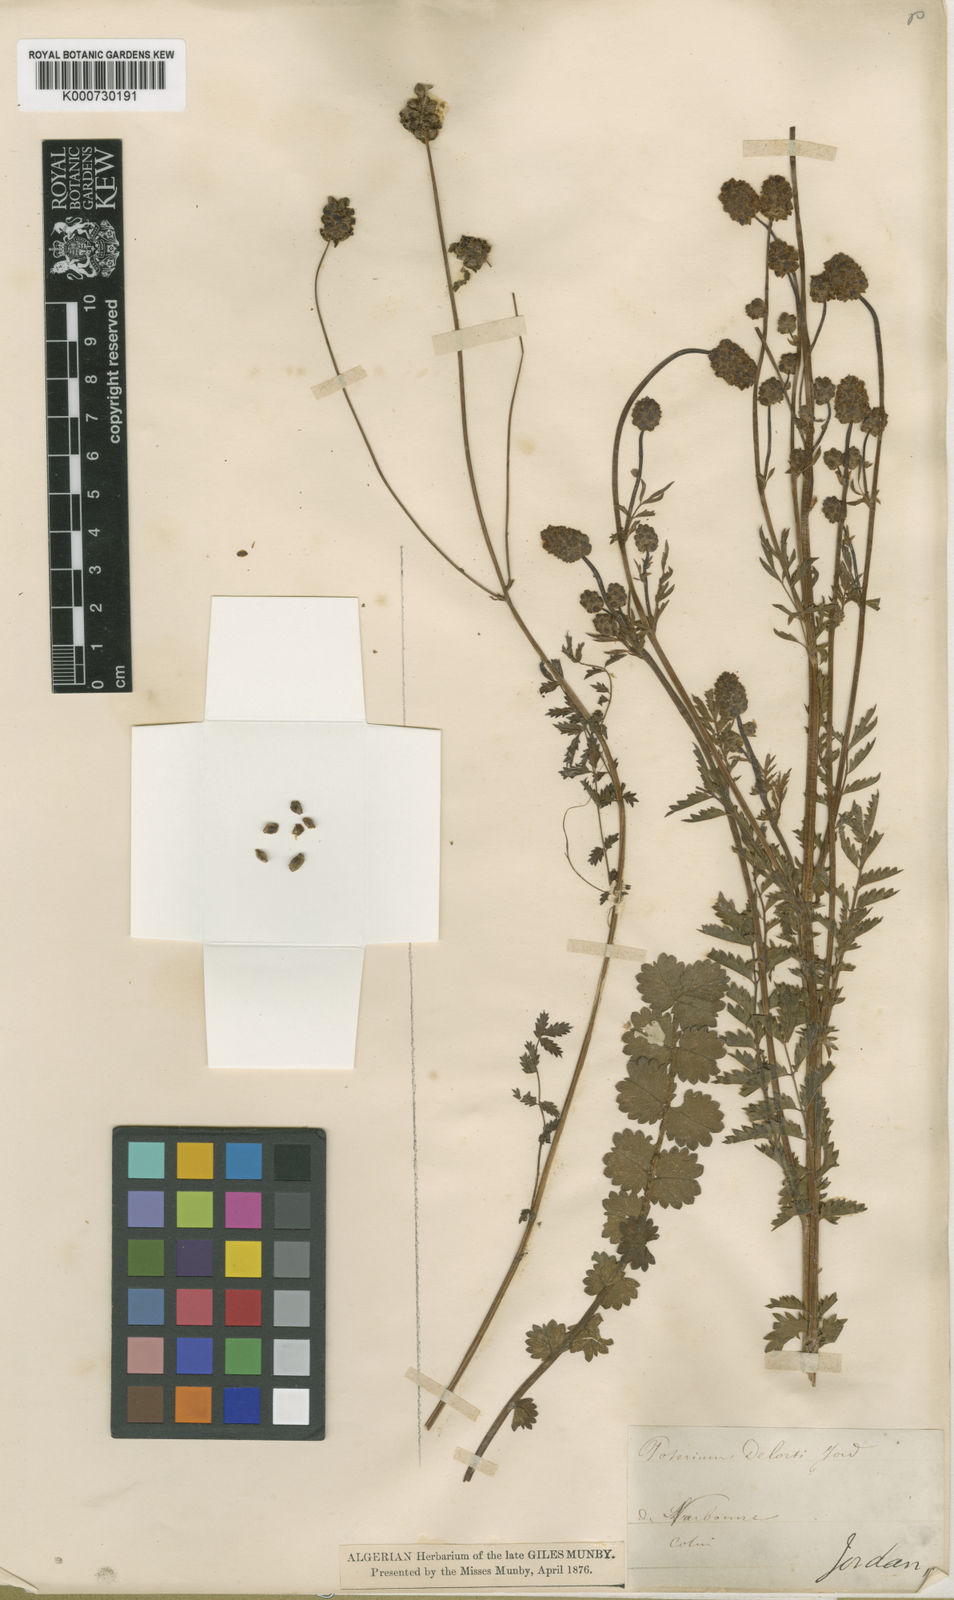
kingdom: Plantae
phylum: Tracheophyta
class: Magnoliopsida
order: Rosales
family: Rosaceae
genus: Sanguisorba
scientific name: Sanguisorba
